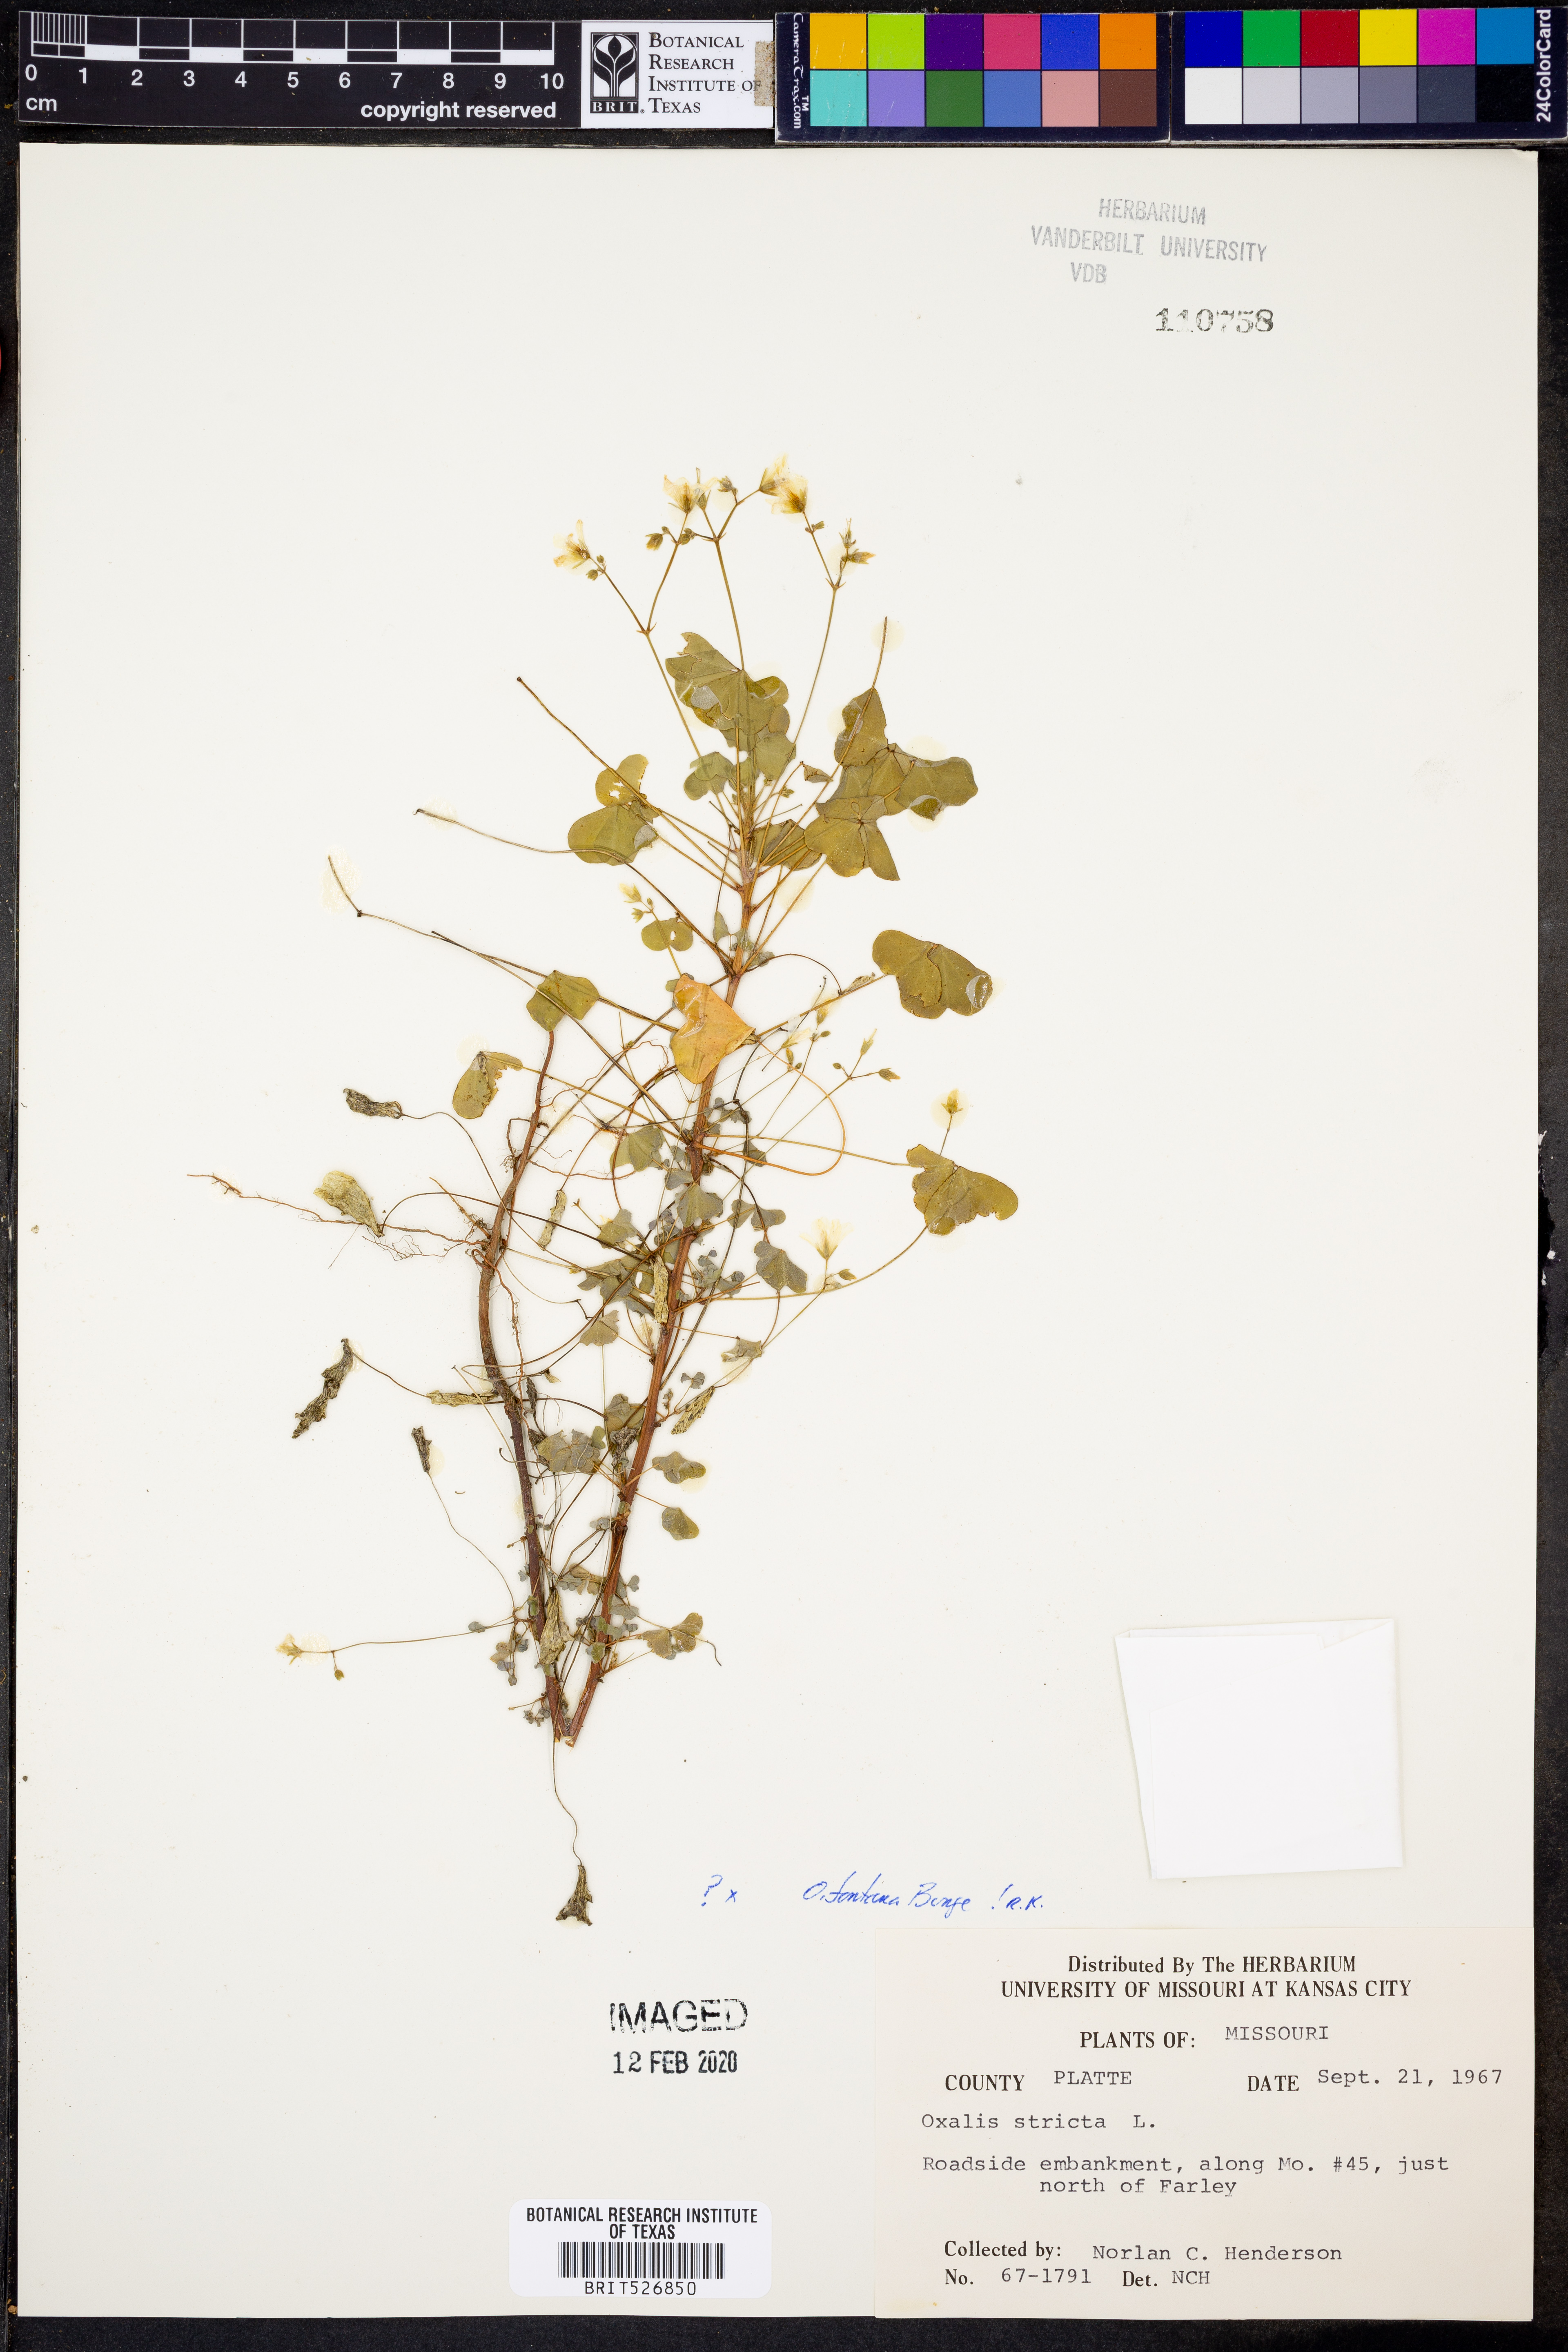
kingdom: Plantae
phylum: Tracheophyta
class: Magnoliopsida
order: Oxalidales
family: Oxalidaceae
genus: Oxalis
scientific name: Oxalis stricta
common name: Upright yellow-sorrel
